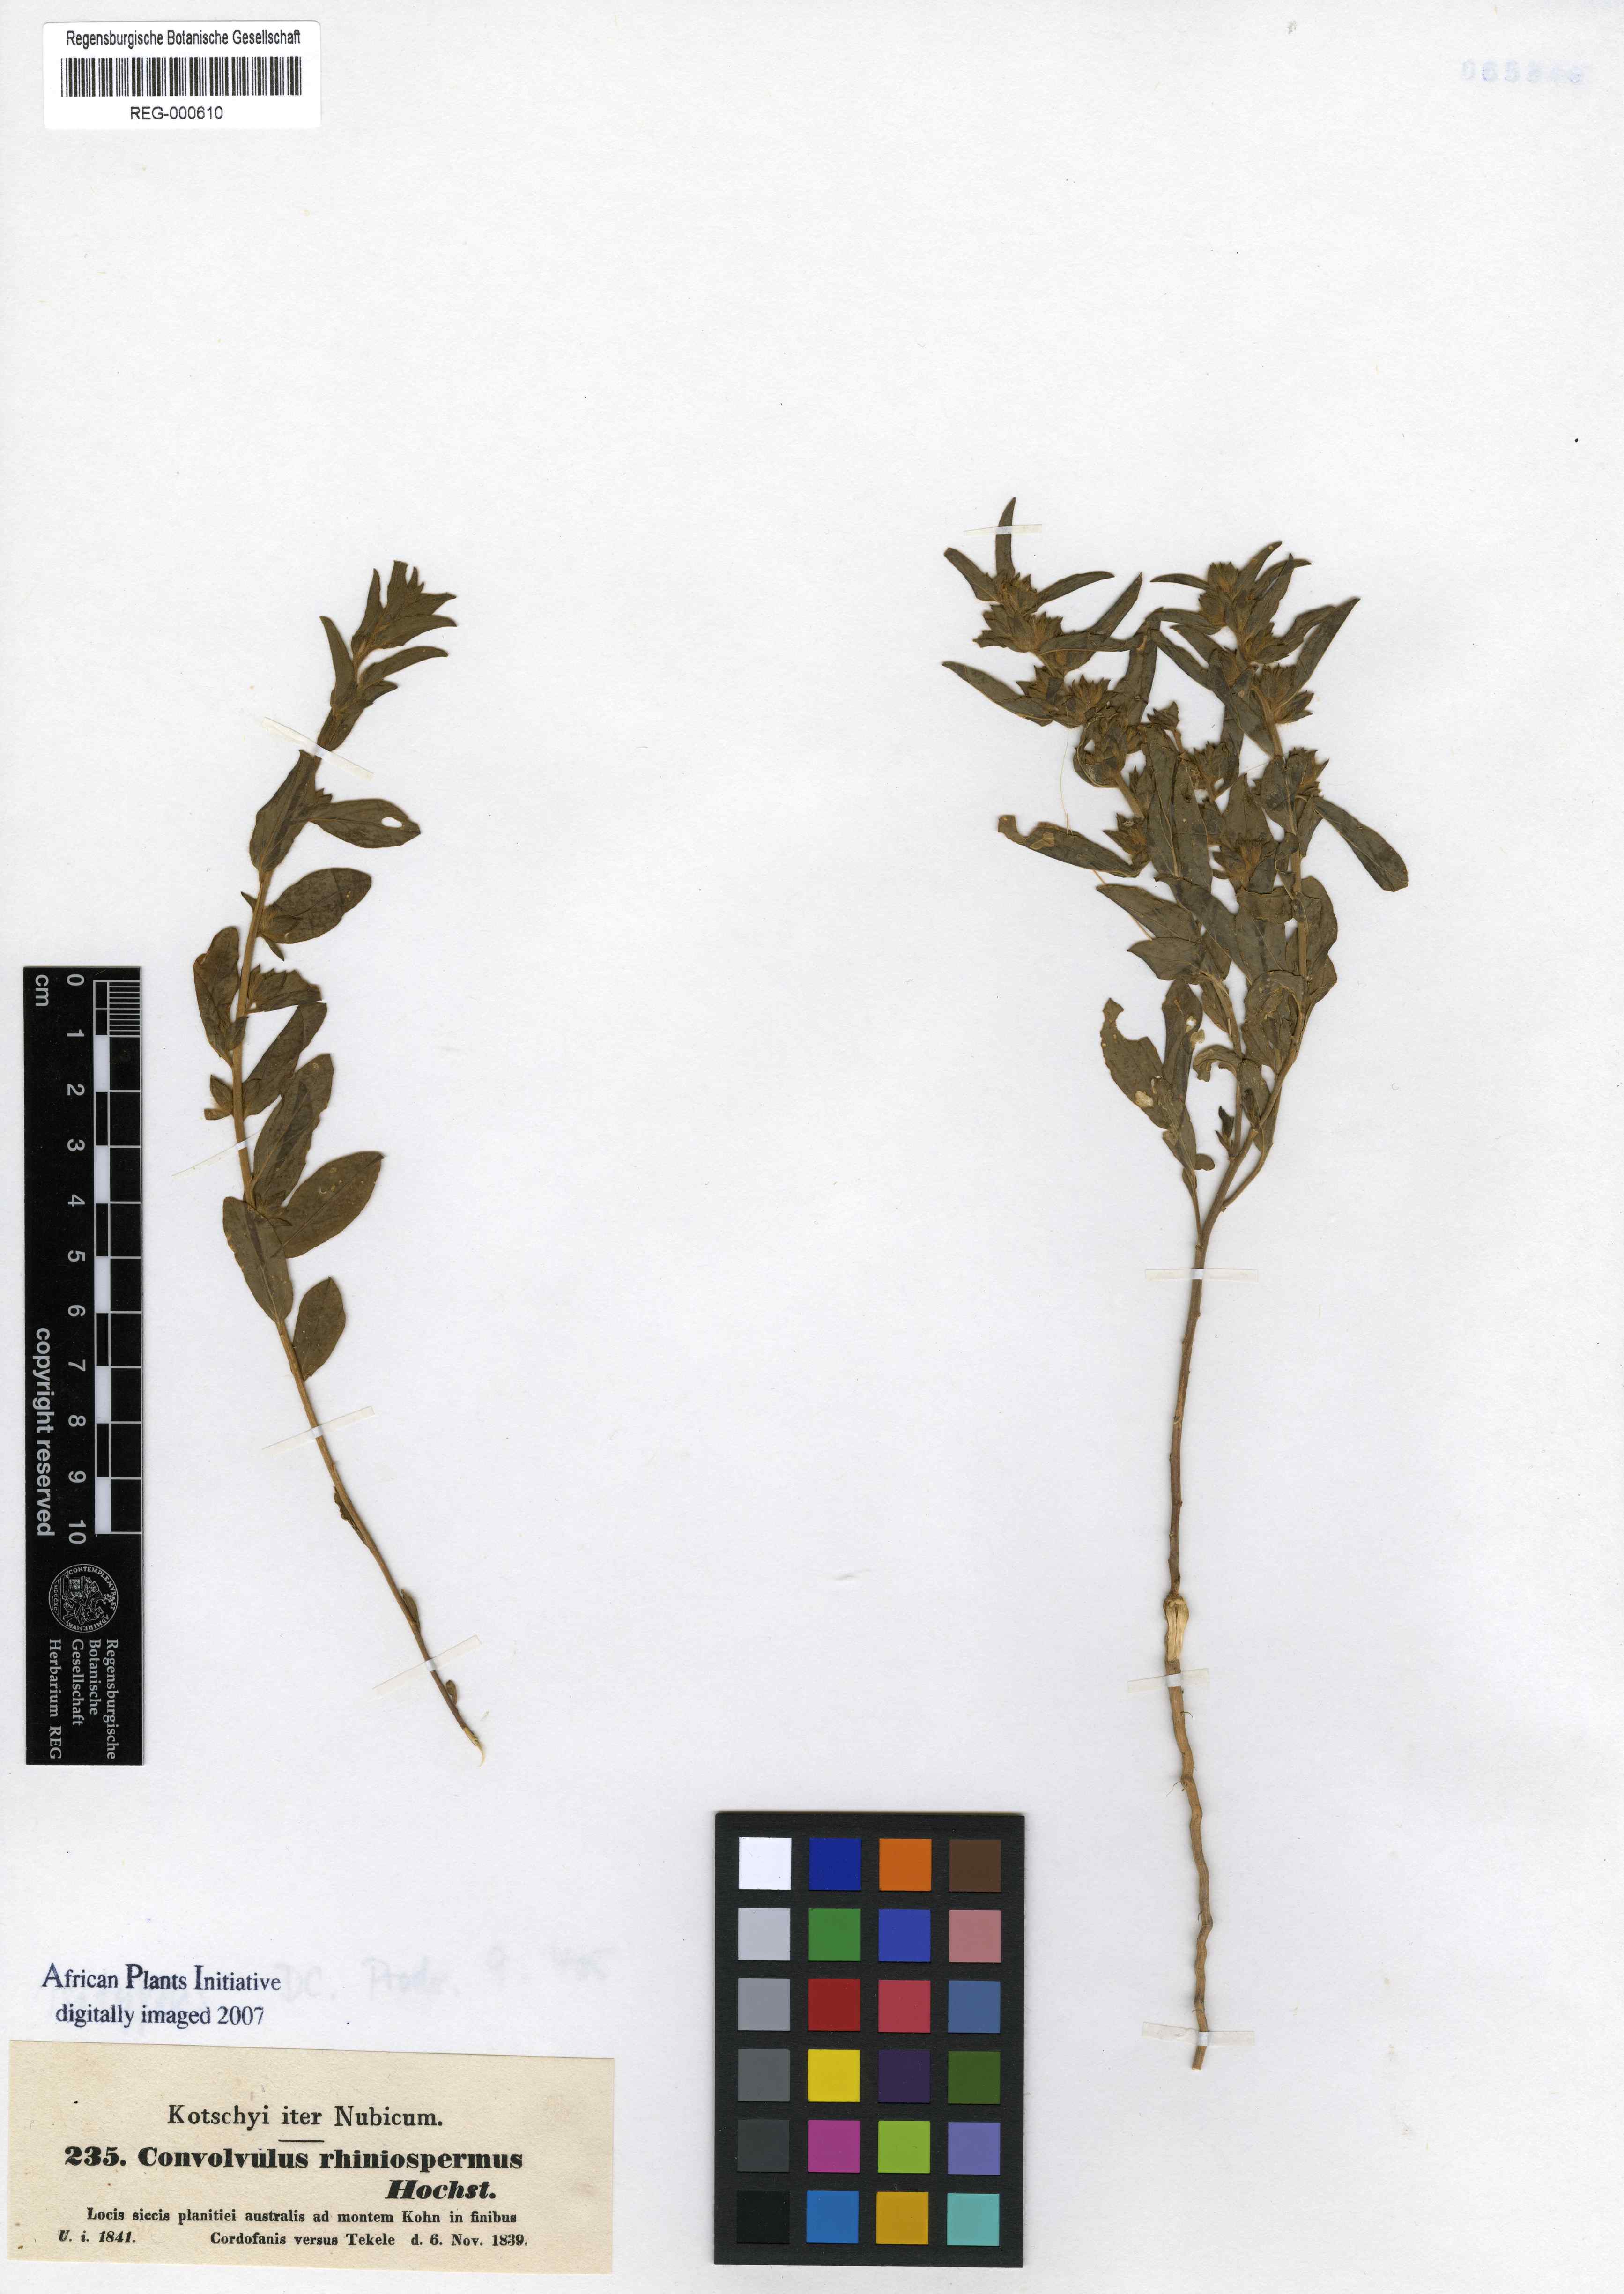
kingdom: Plantae
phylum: Tracheophyta
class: Magnoliopsida
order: Solanales
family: Convolvulaceae
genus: Convolvulus
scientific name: Convolvulus rhyniospermus
